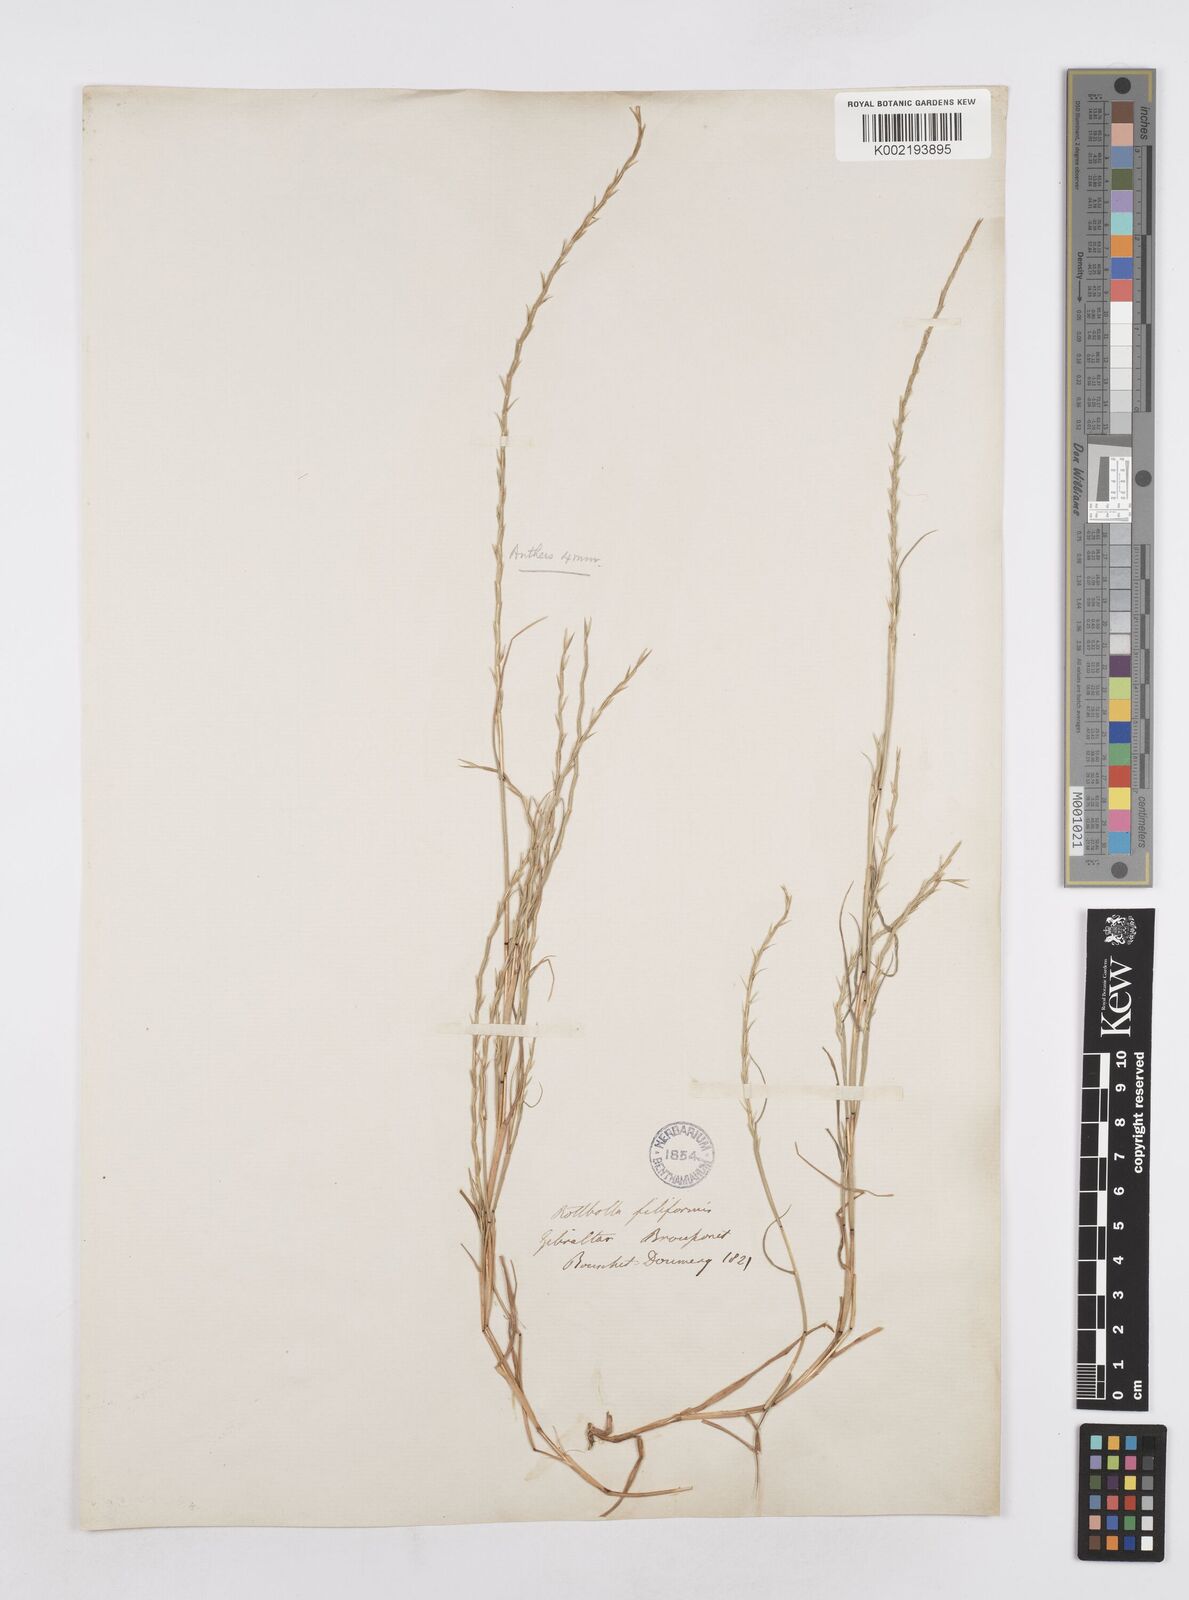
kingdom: Plantae
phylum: Tracheophyta
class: Liliopsida
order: Poales
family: Poaceae
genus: Parapholis
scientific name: Parapholis pycnantha
